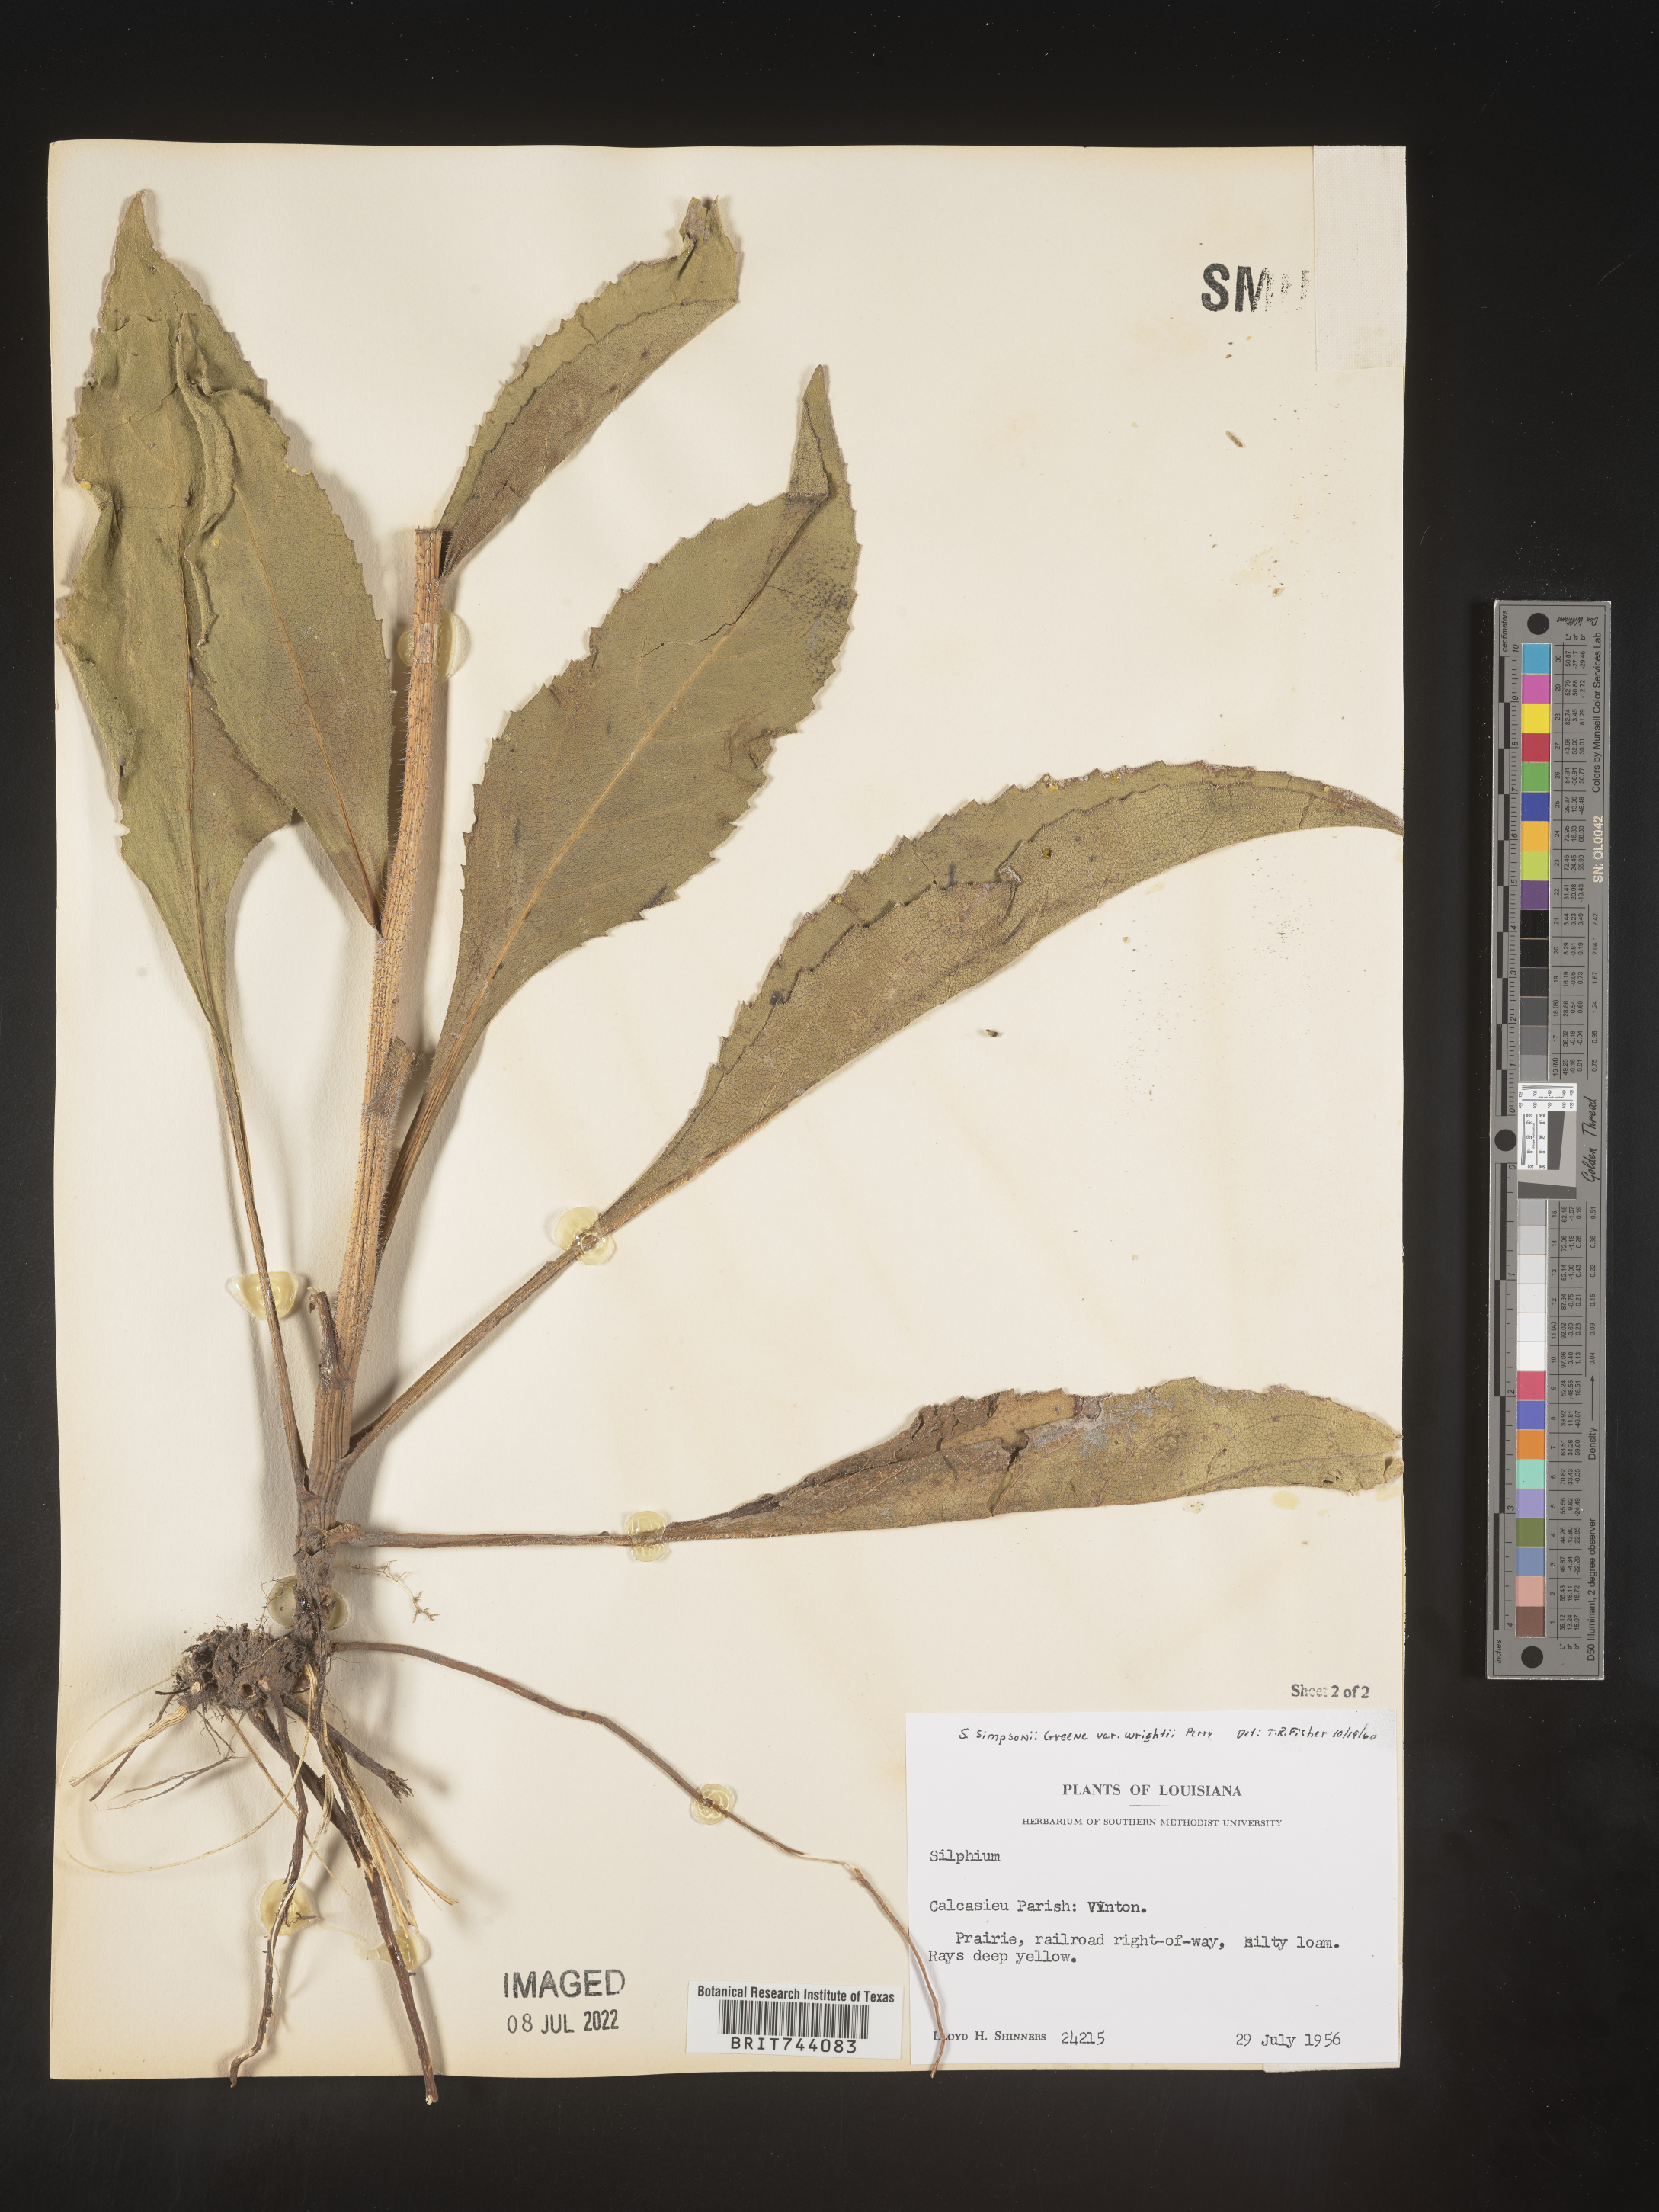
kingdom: Plantae
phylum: Tracheophyta
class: Magnoliopsida
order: Asterales
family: Asteraceae
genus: Silphium
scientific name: Silphium radula
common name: Roughleaf rosinweed
